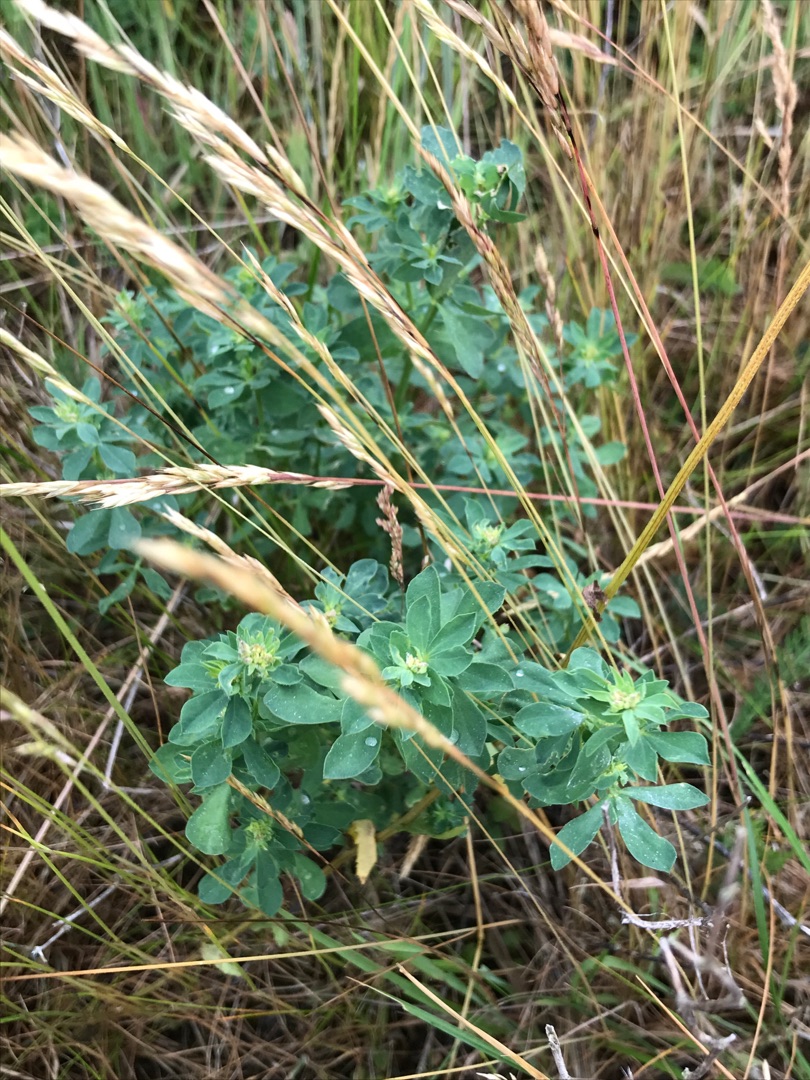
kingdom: Plantae
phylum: Tracheophyta
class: Magnoliopsida
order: Fabales
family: Fabaceae
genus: Lotus
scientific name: Lotus corniculatus
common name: Almindelig kællingetand
